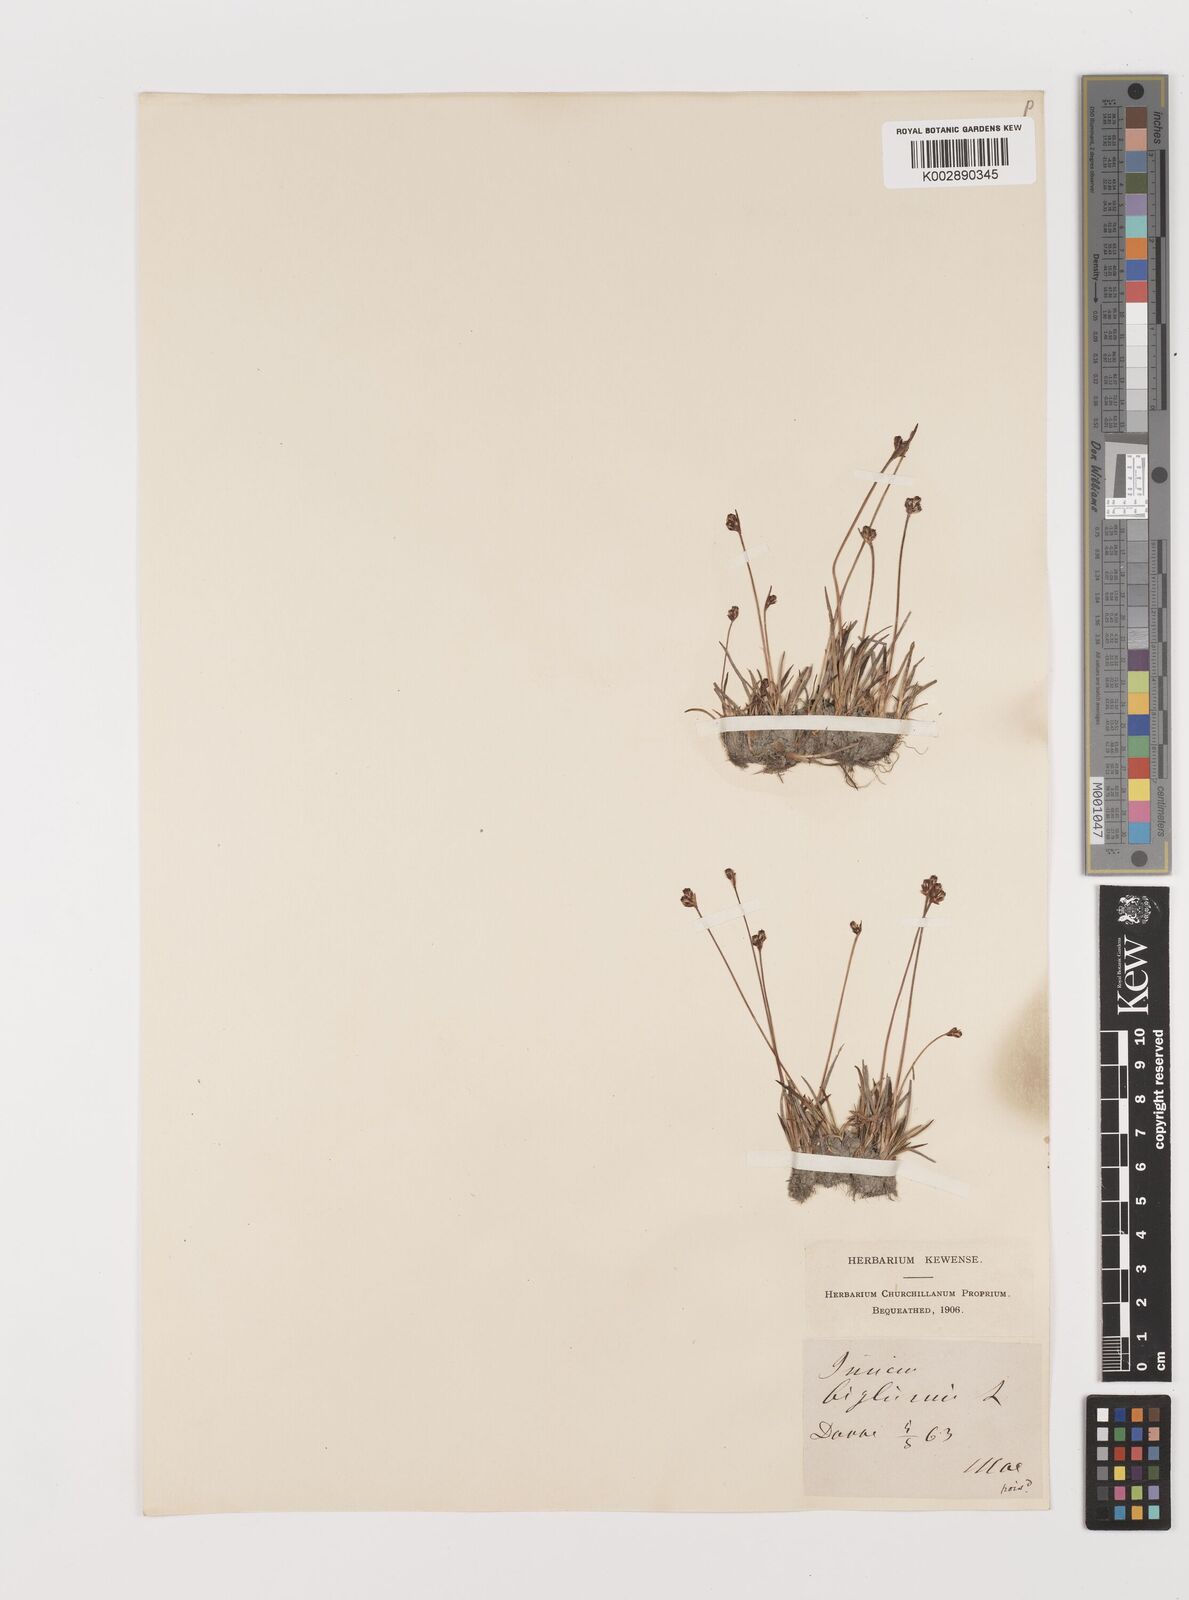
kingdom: Plantae
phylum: Tracheophyta
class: Liliopsida
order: Poales
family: Juncaceae
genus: Juncus
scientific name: Juncus biglumis
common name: Two-flowered rush
